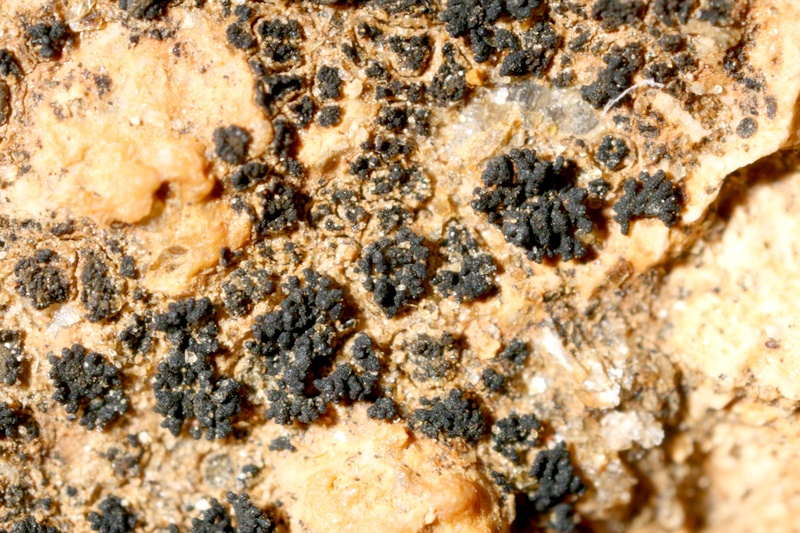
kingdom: Fungi
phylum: Ascomycota
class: Lichinomycetes
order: Lichinales
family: Lichinaceae
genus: Peccania
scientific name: Peccania tiruncula
